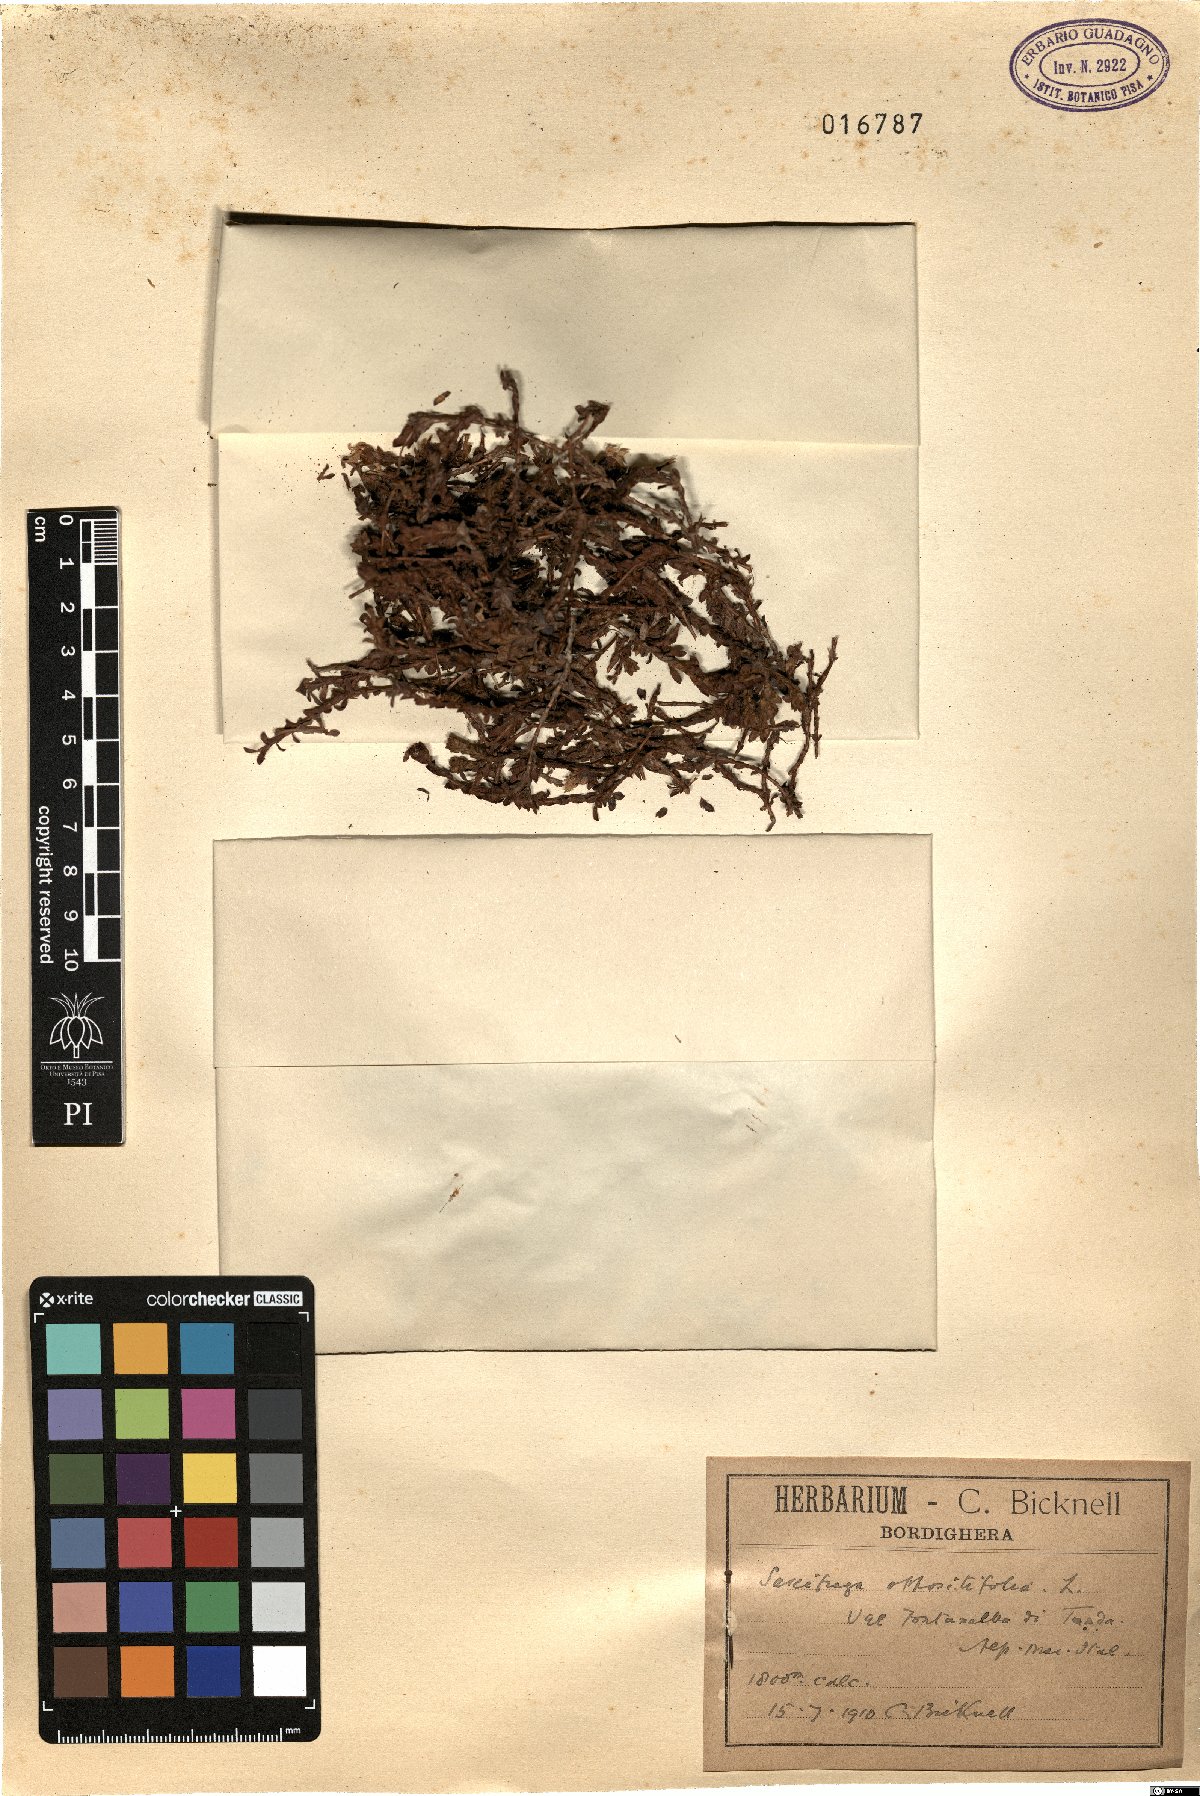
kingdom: Plantae
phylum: Tracheophyta
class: Magnoliopsida
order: Saxifragales
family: Saxifragaceae
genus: Saxifraga
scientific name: Saxifraga oppositifolia
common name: Purple saxifrage
